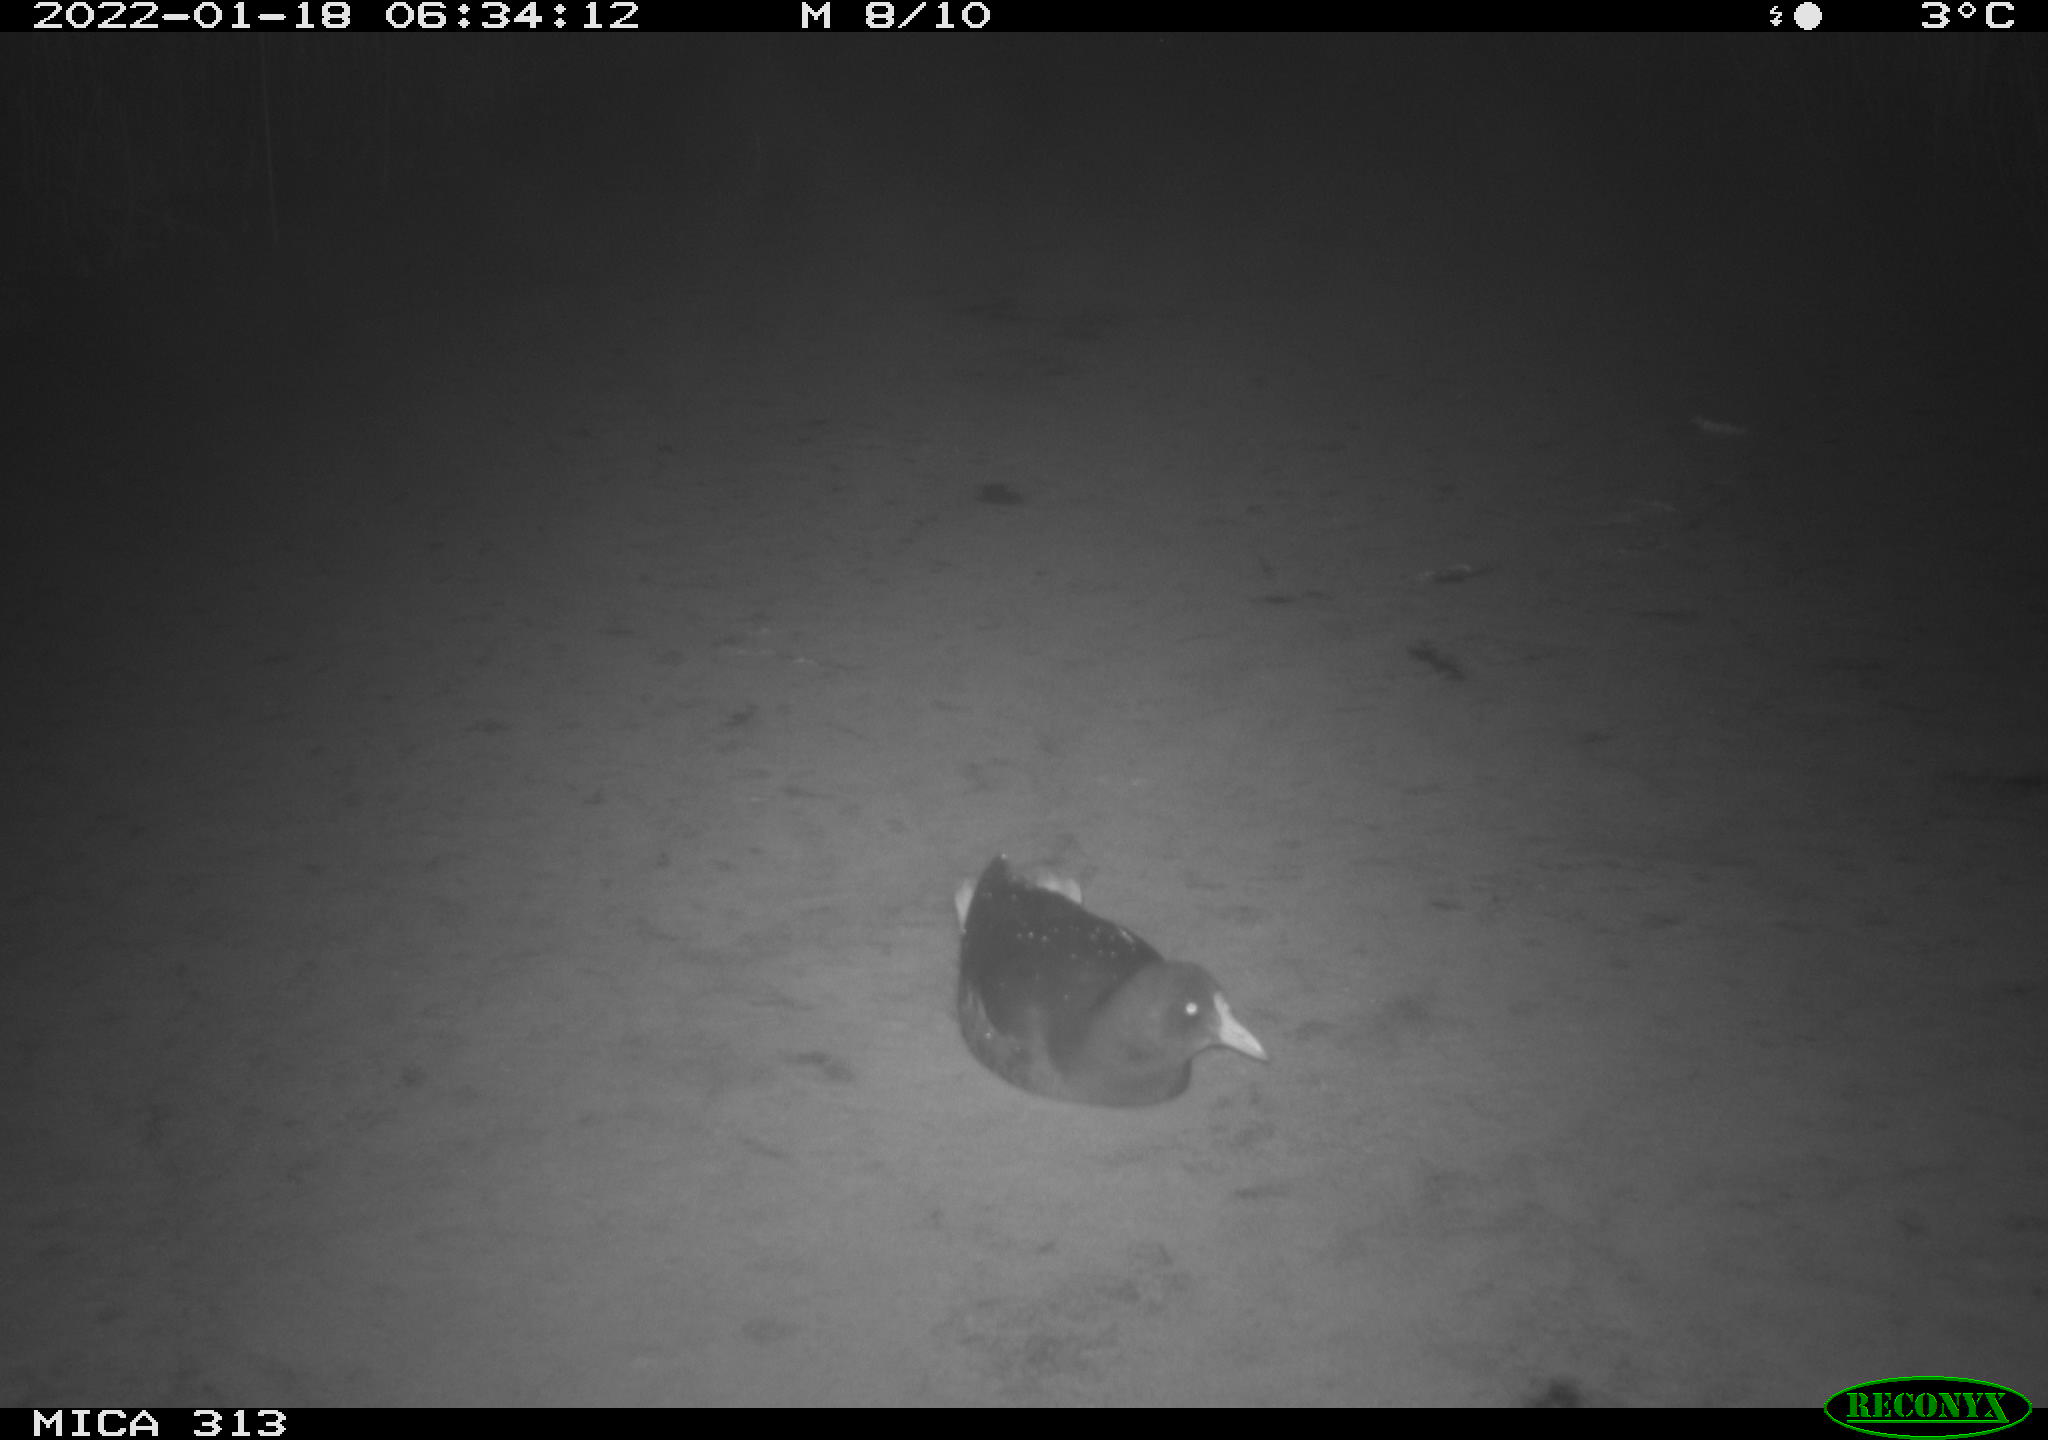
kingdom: Animalia
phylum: Chordata
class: Aves
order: Gruiformes
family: Rallidae
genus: Gallinula
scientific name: Gallinula chloropus
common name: Common moorhen
